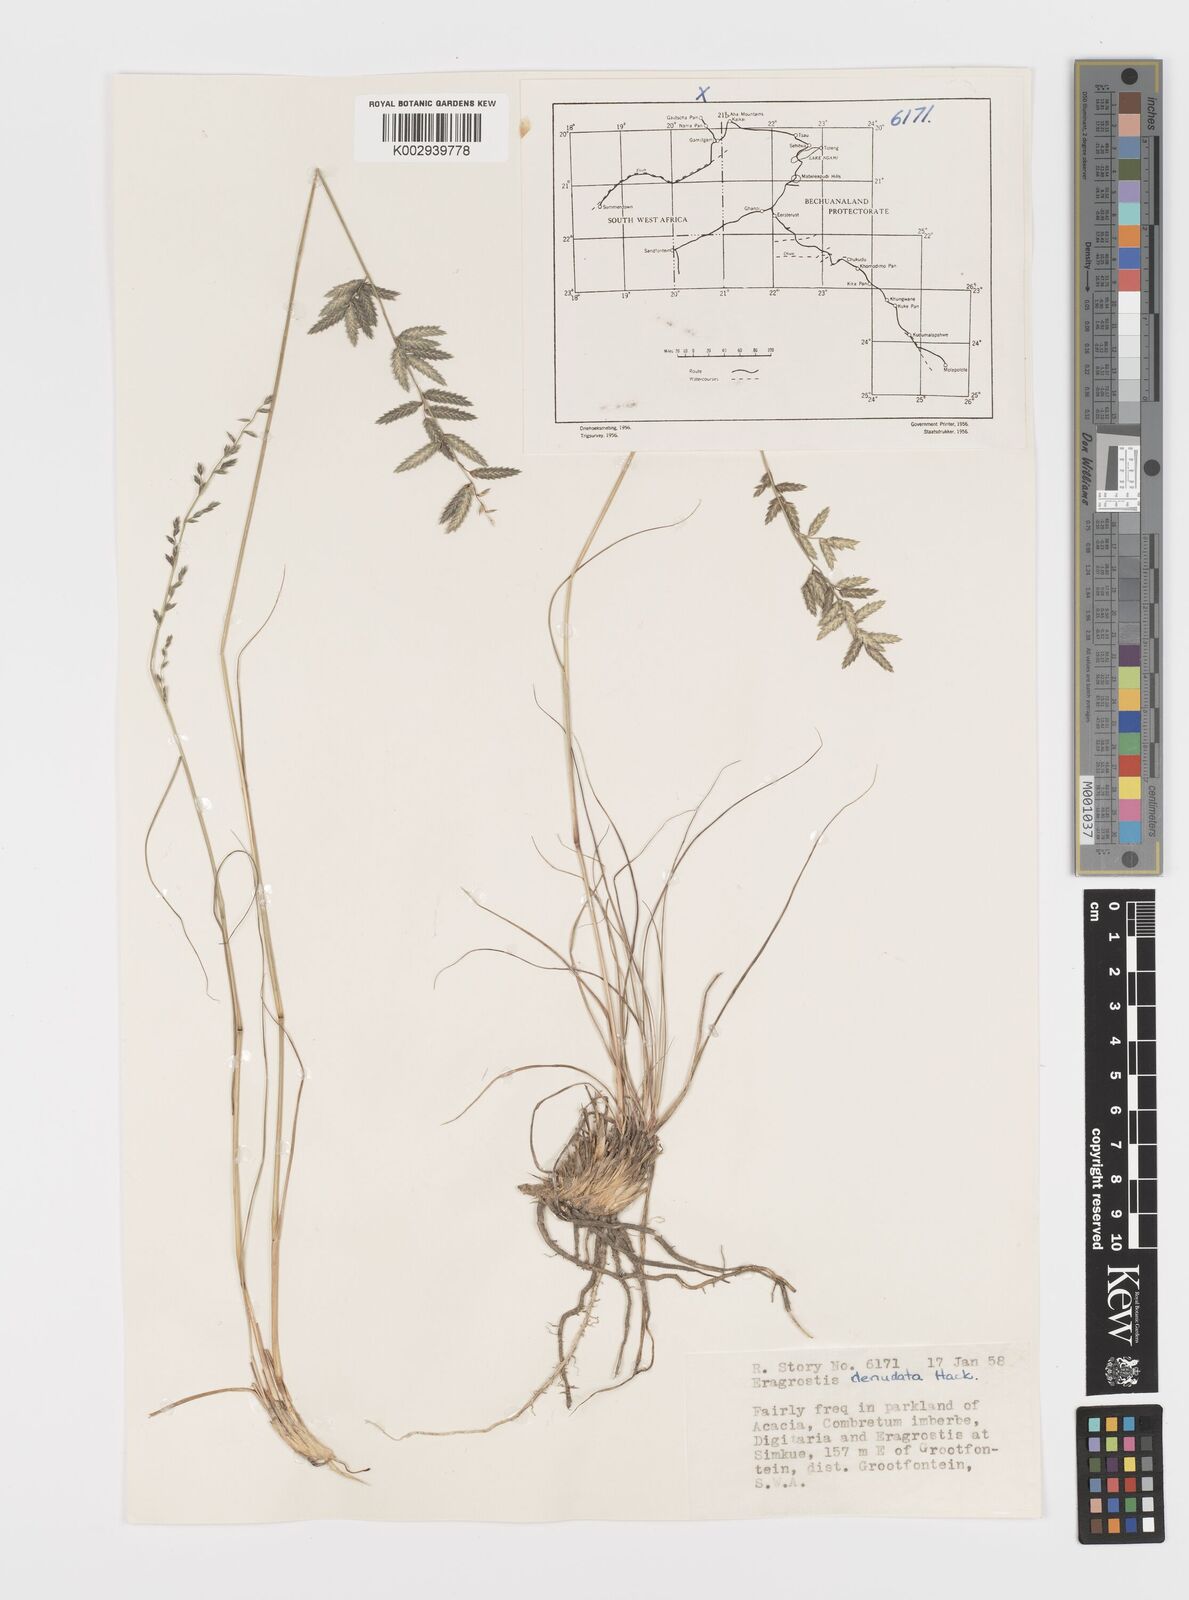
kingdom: Plantae
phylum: Tracheophyta
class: Liliopsida
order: Poales
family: Poaceae
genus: Eragrostis
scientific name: Eragrostis nindensis
